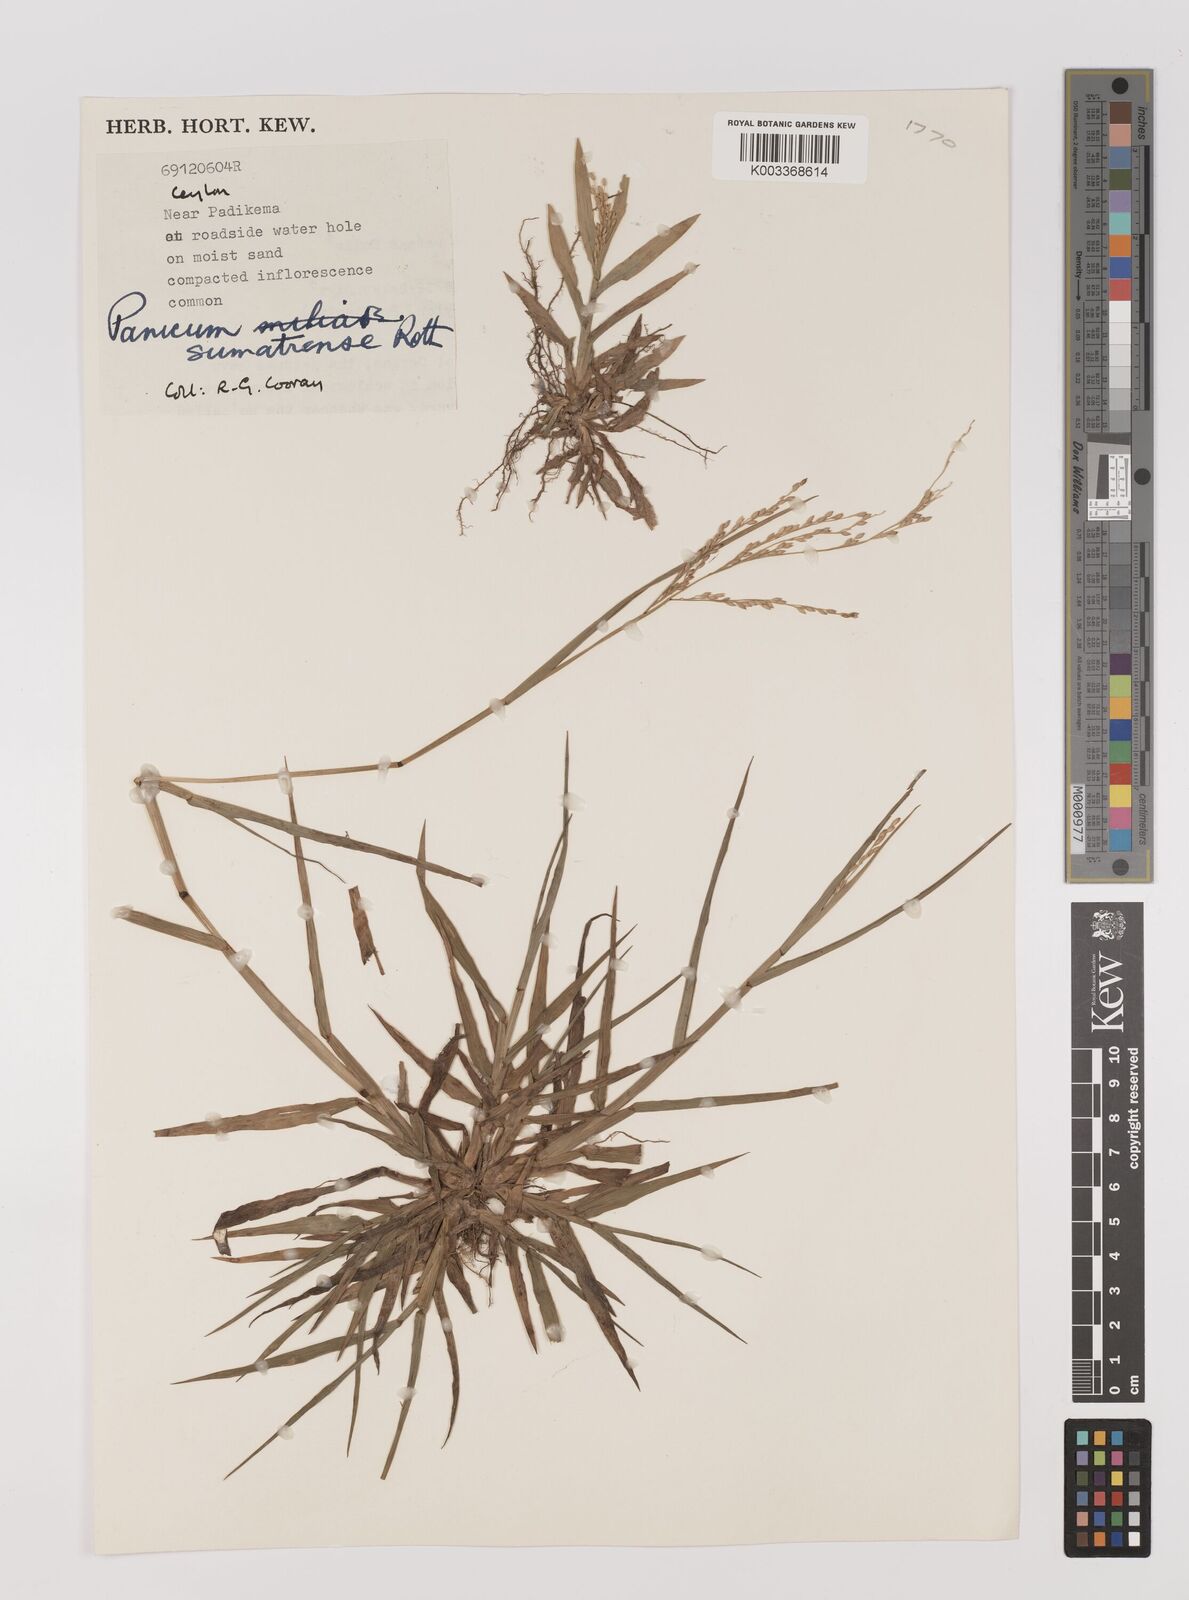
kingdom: Plantae
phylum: Tracheophyta
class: Liliopsida
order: Poales
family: Poaceae
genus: Panicum
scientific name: Panicum sumatrense
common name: Little millet
